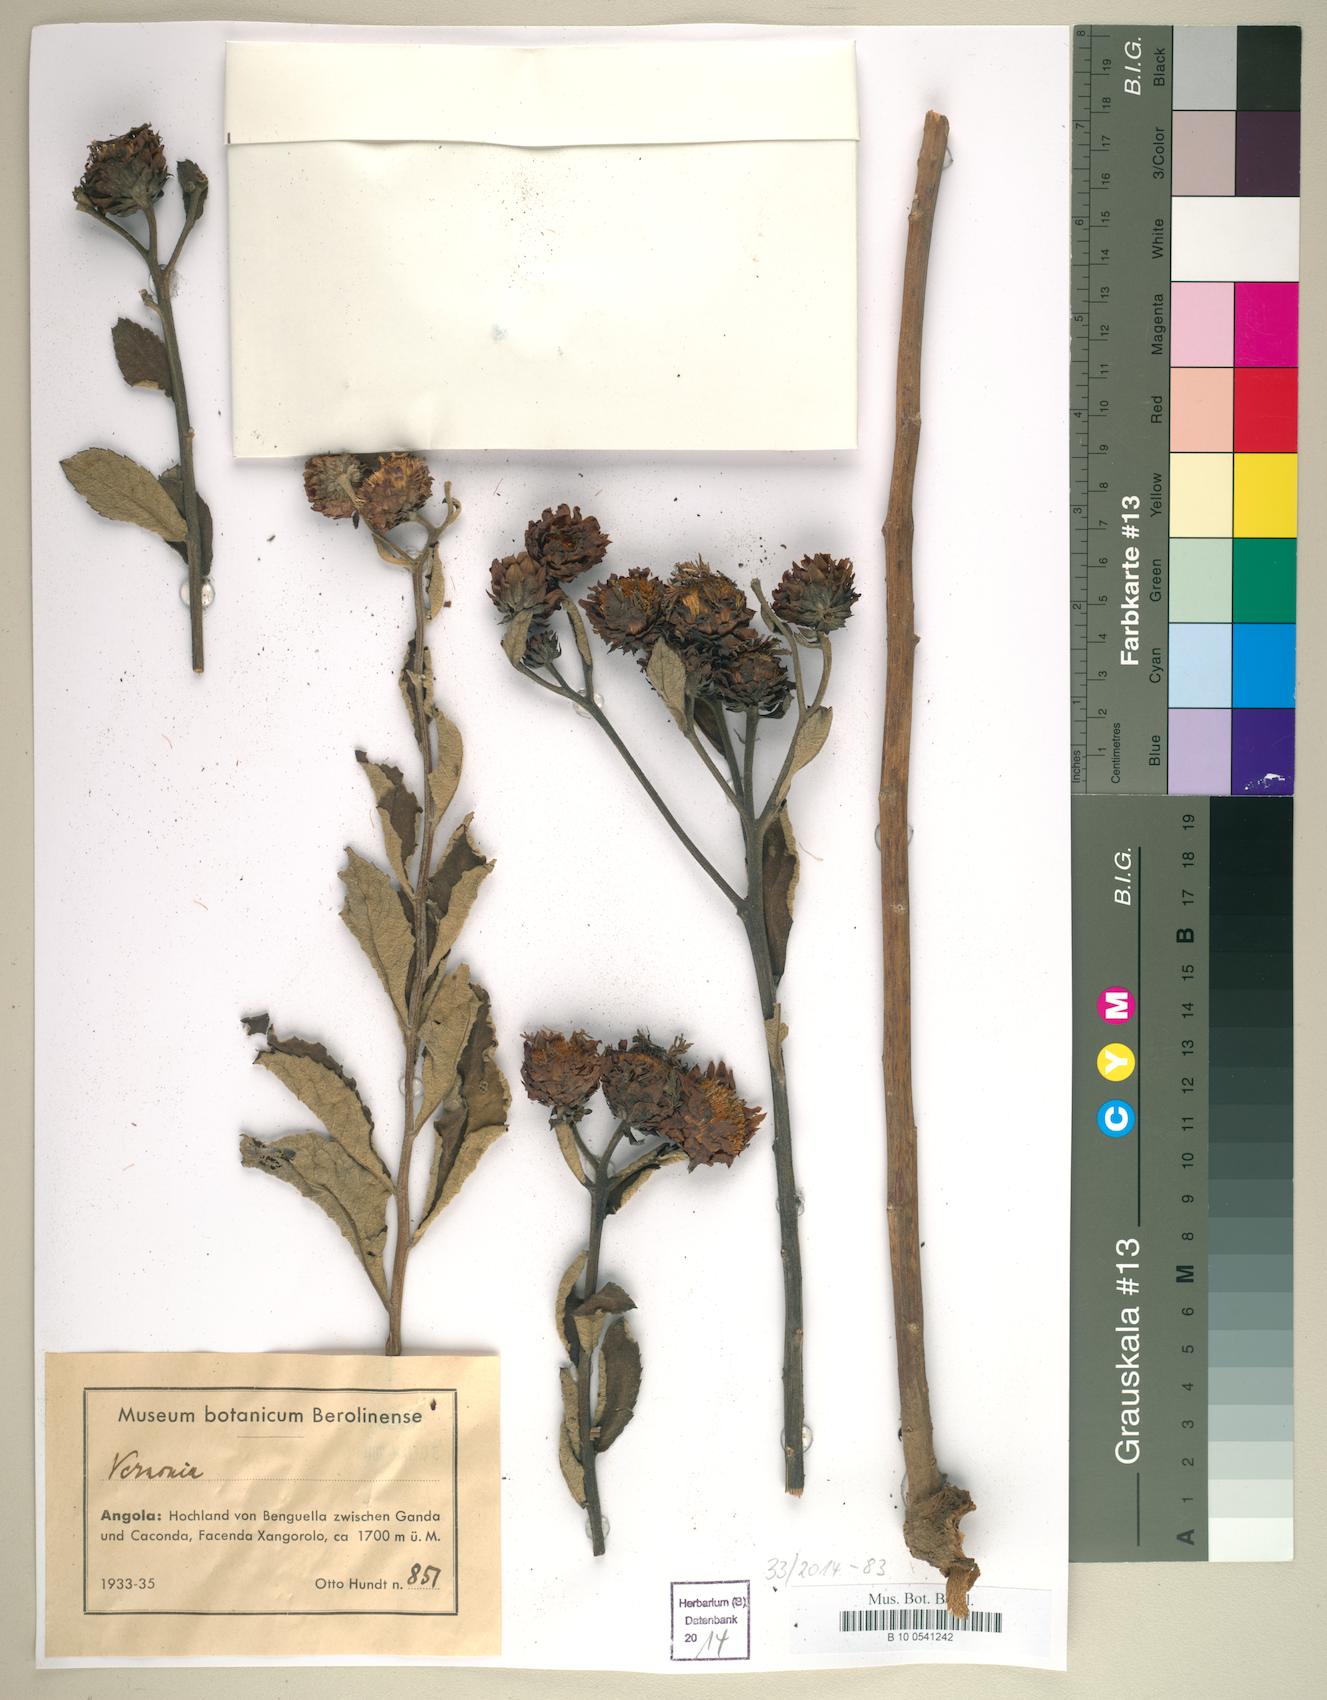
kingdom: Plantae
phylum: Tracheophyta
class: Magnoliopsida
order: Asterales
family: Asteraceae
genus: Vernonia
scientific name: Vernonia
